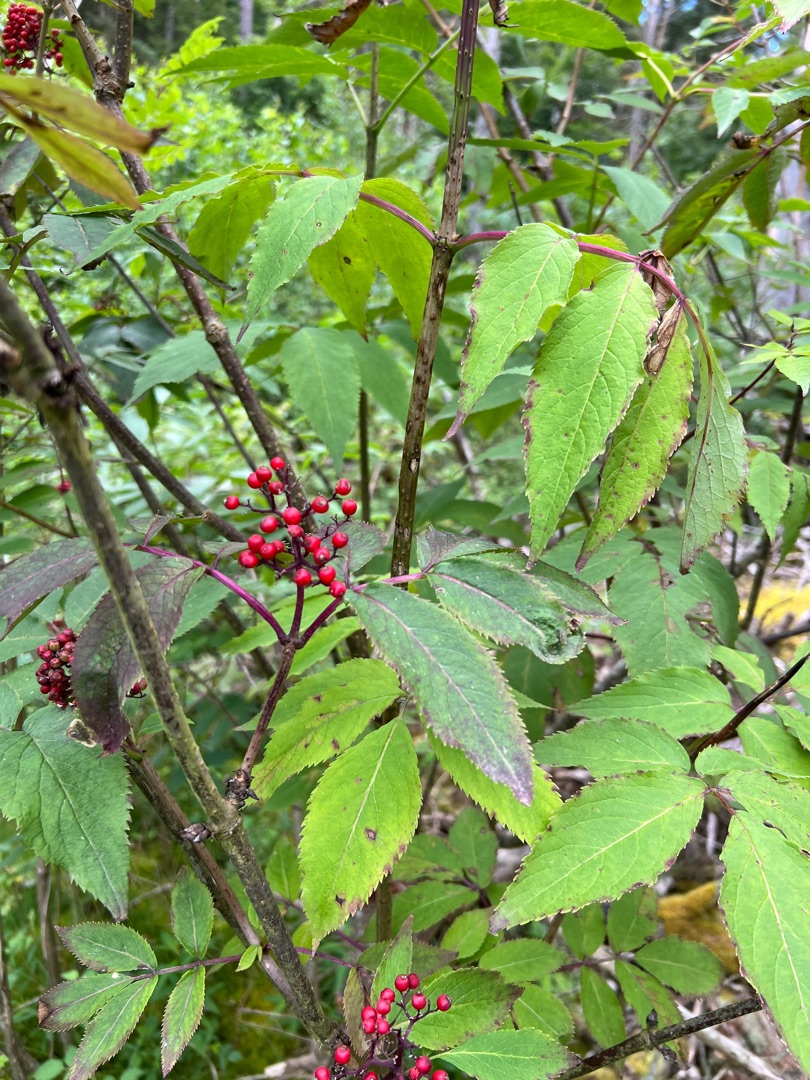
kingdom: Plantae
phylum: Tracheophyta
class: Magnoliopsida
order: Dipsacales
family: Viburnaceae
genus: Sambucus
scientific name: Sambucus racemosa
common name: Drue-hyld
